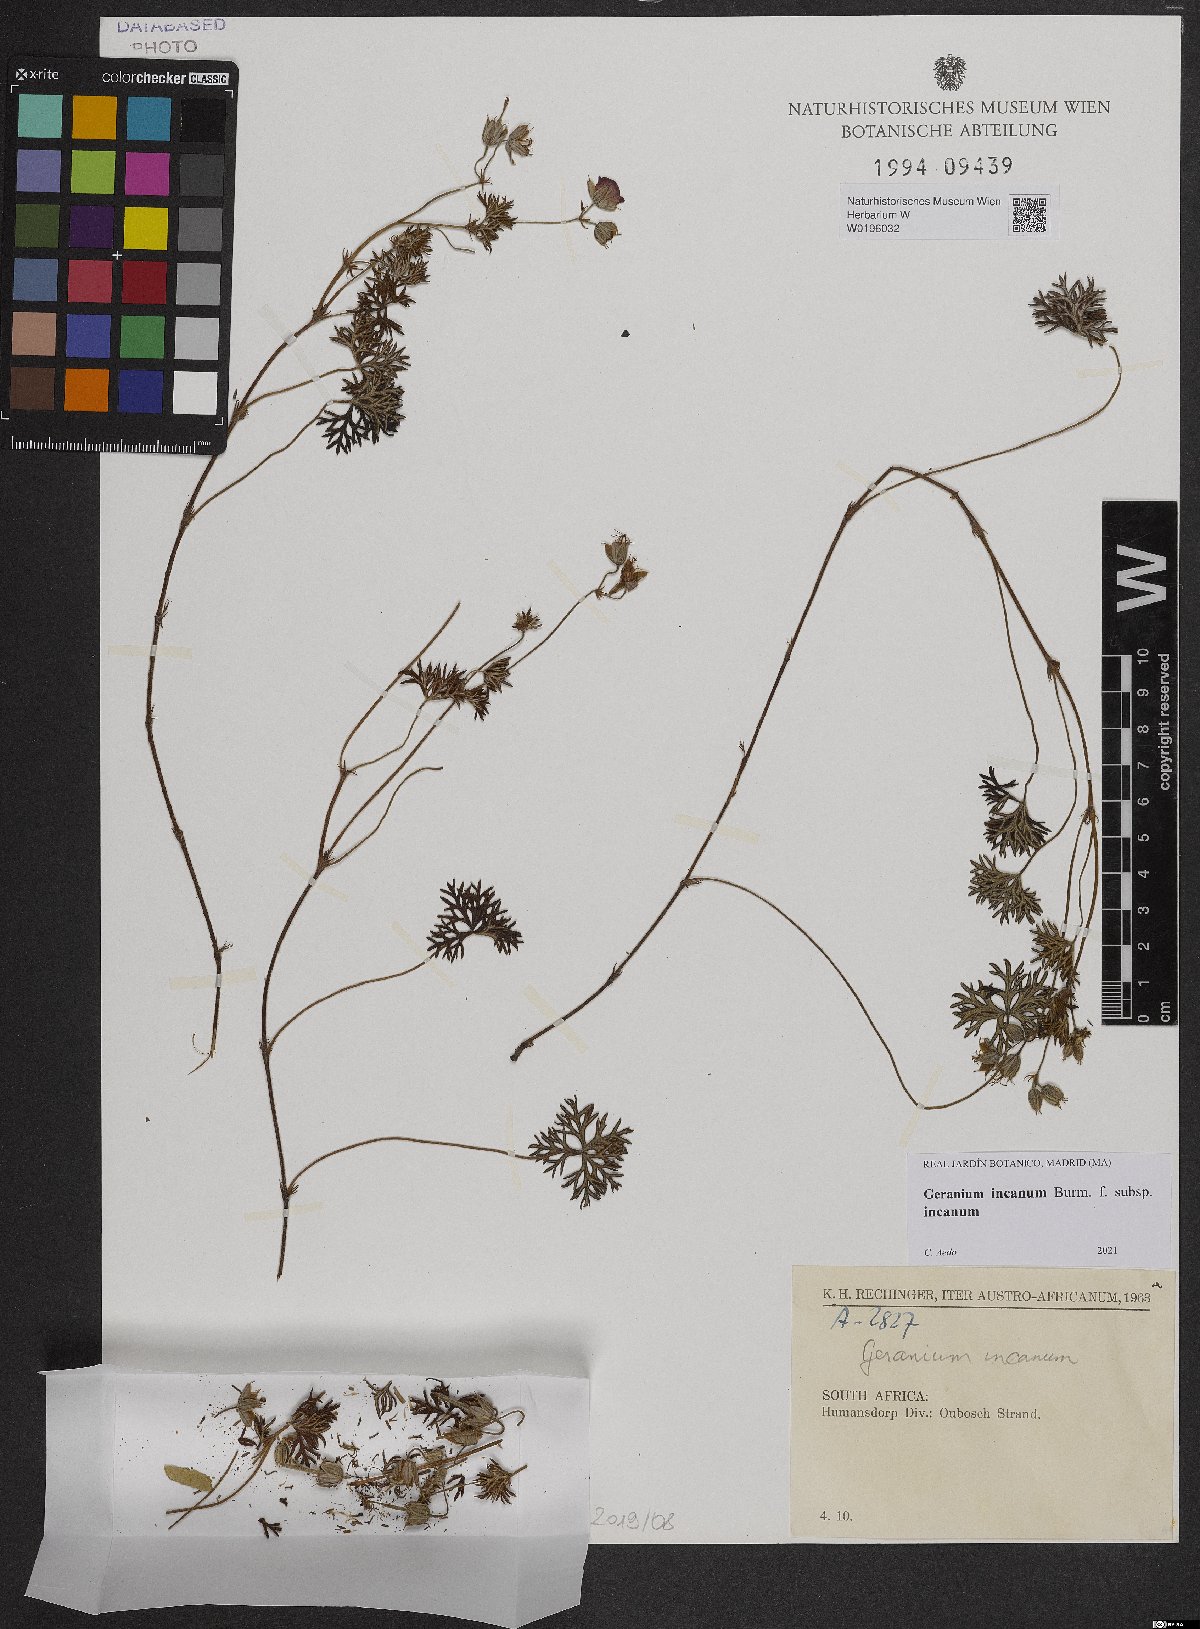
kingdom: Plantae
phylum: Tracheophyta
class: Magnoliopsida
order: Geraniales
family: Geraniaceae
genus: Geranium
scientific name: Geranium incanum
